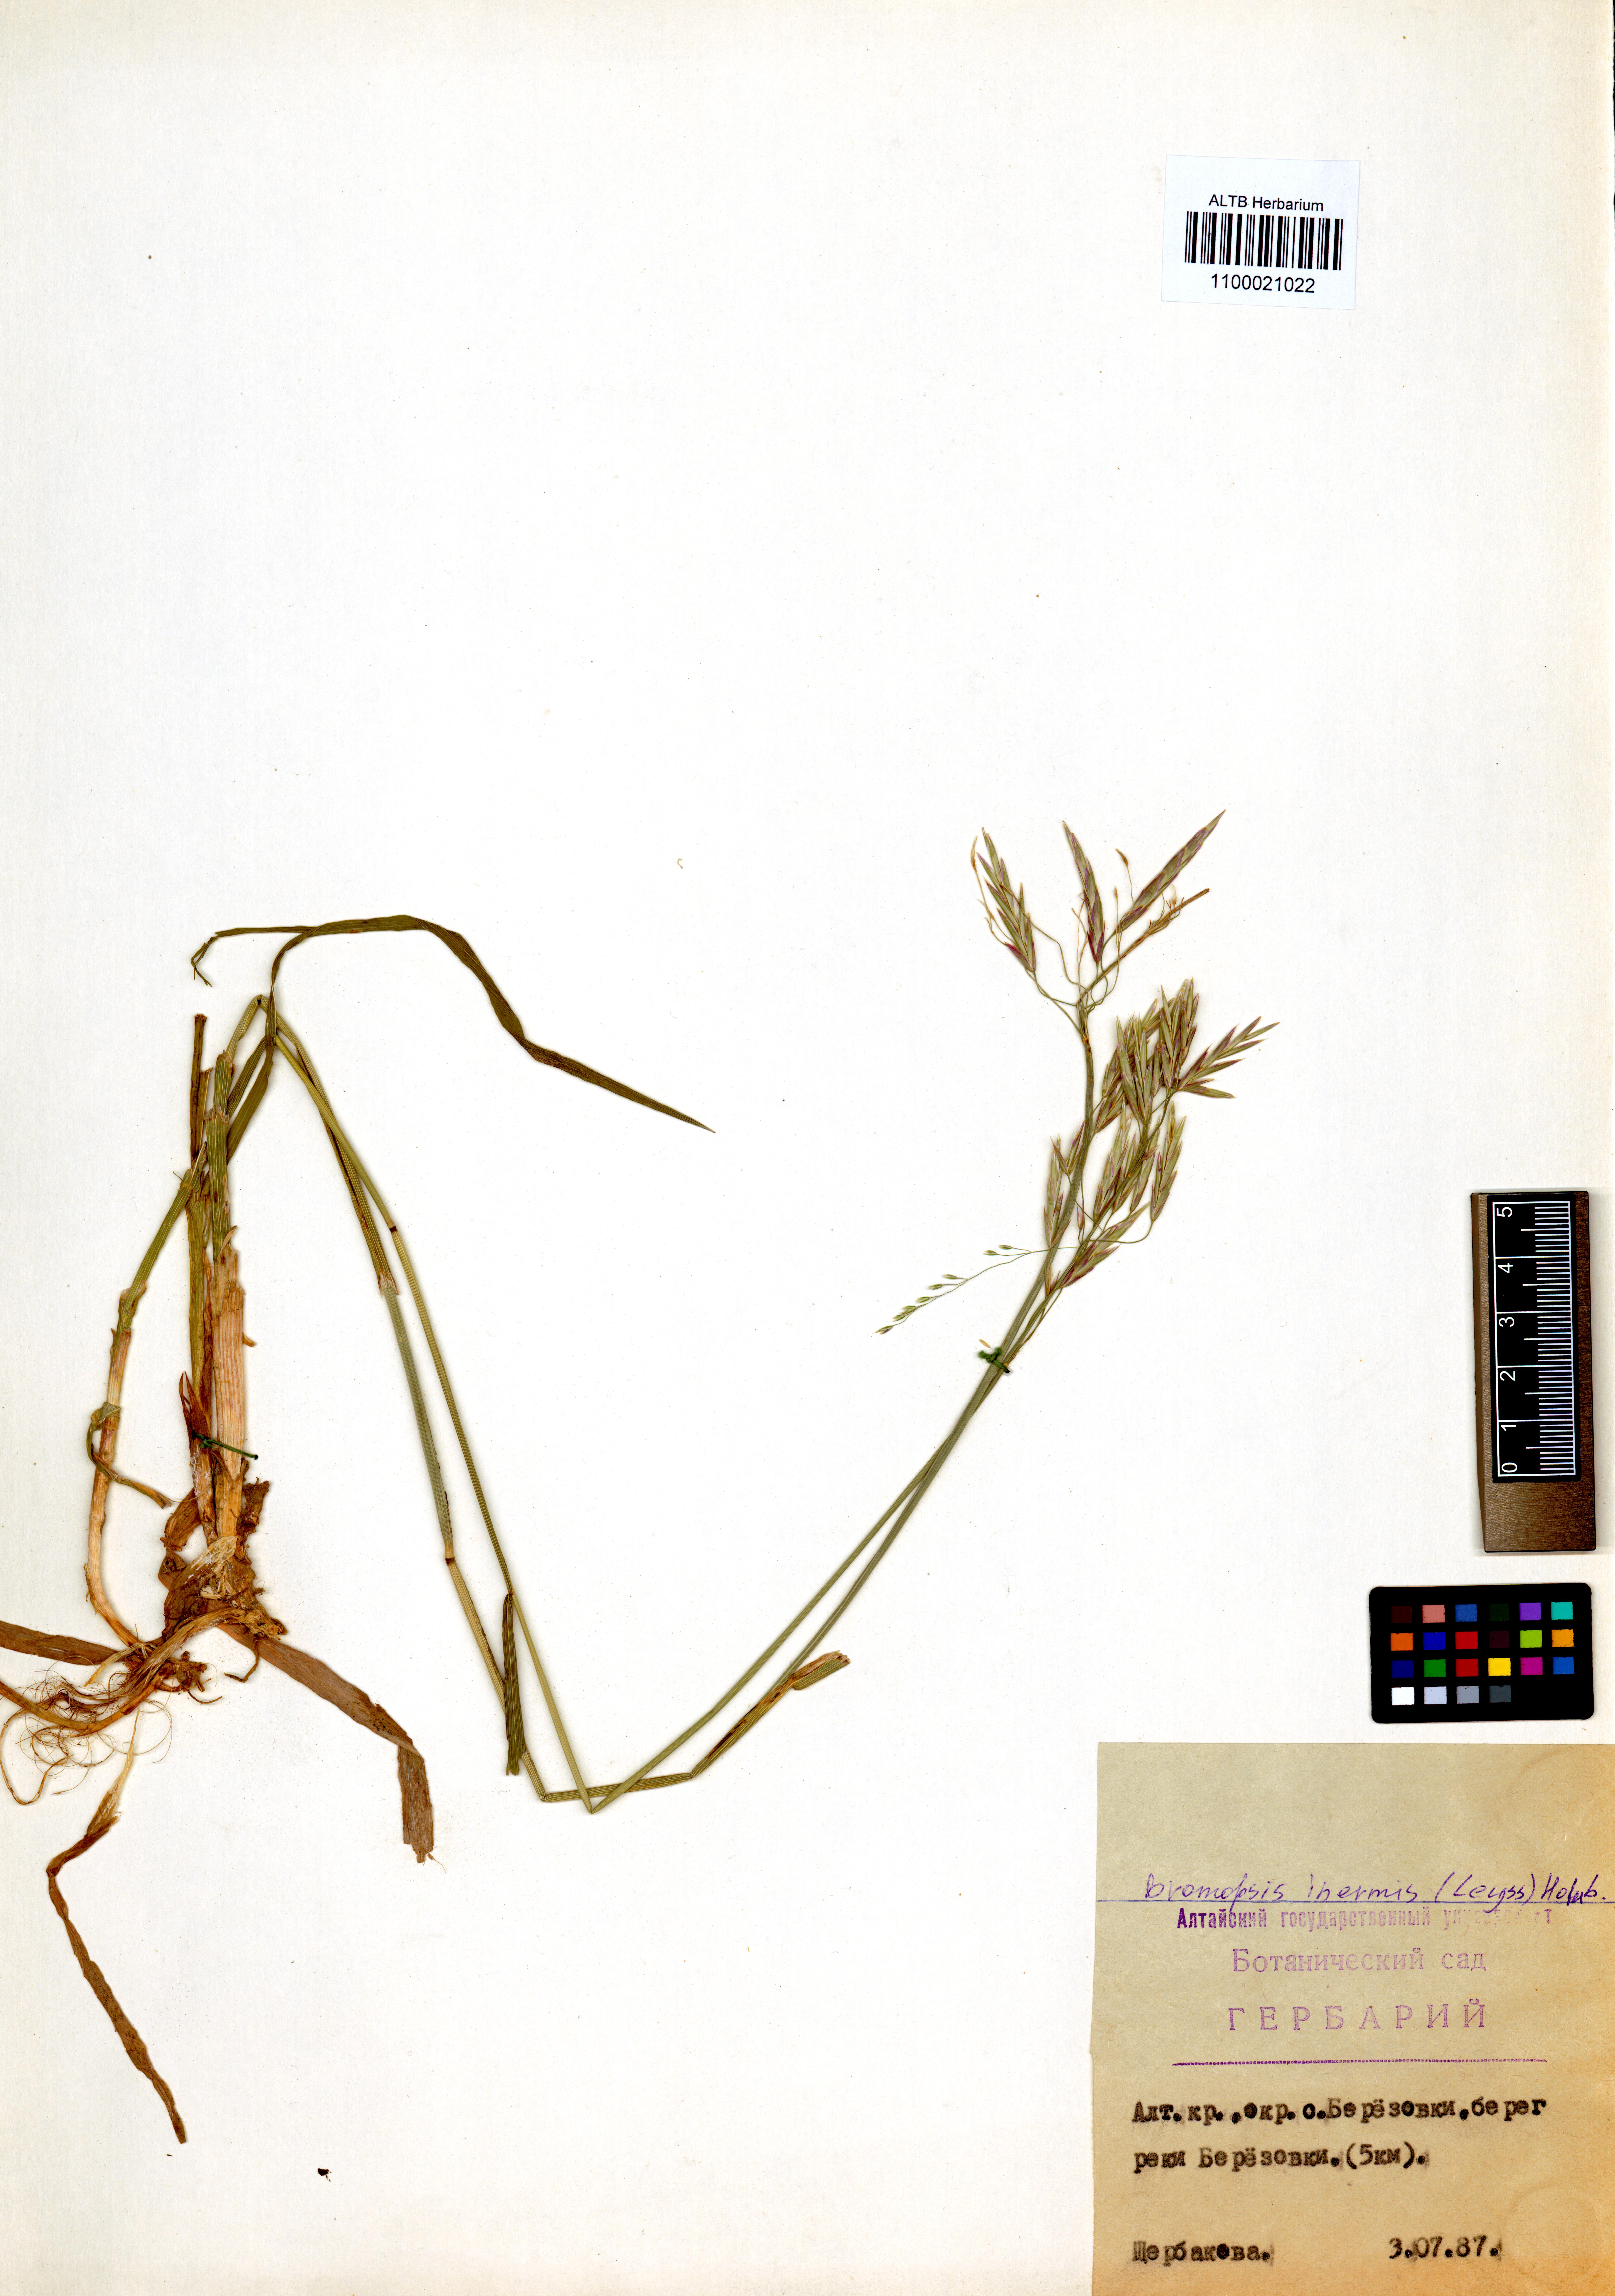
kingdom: Plantae
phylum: Tracheophyta
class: Liliopsida
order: Poales
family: Poaceae
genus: Bromus
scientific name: Bromus inermis
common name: Smooth brome
